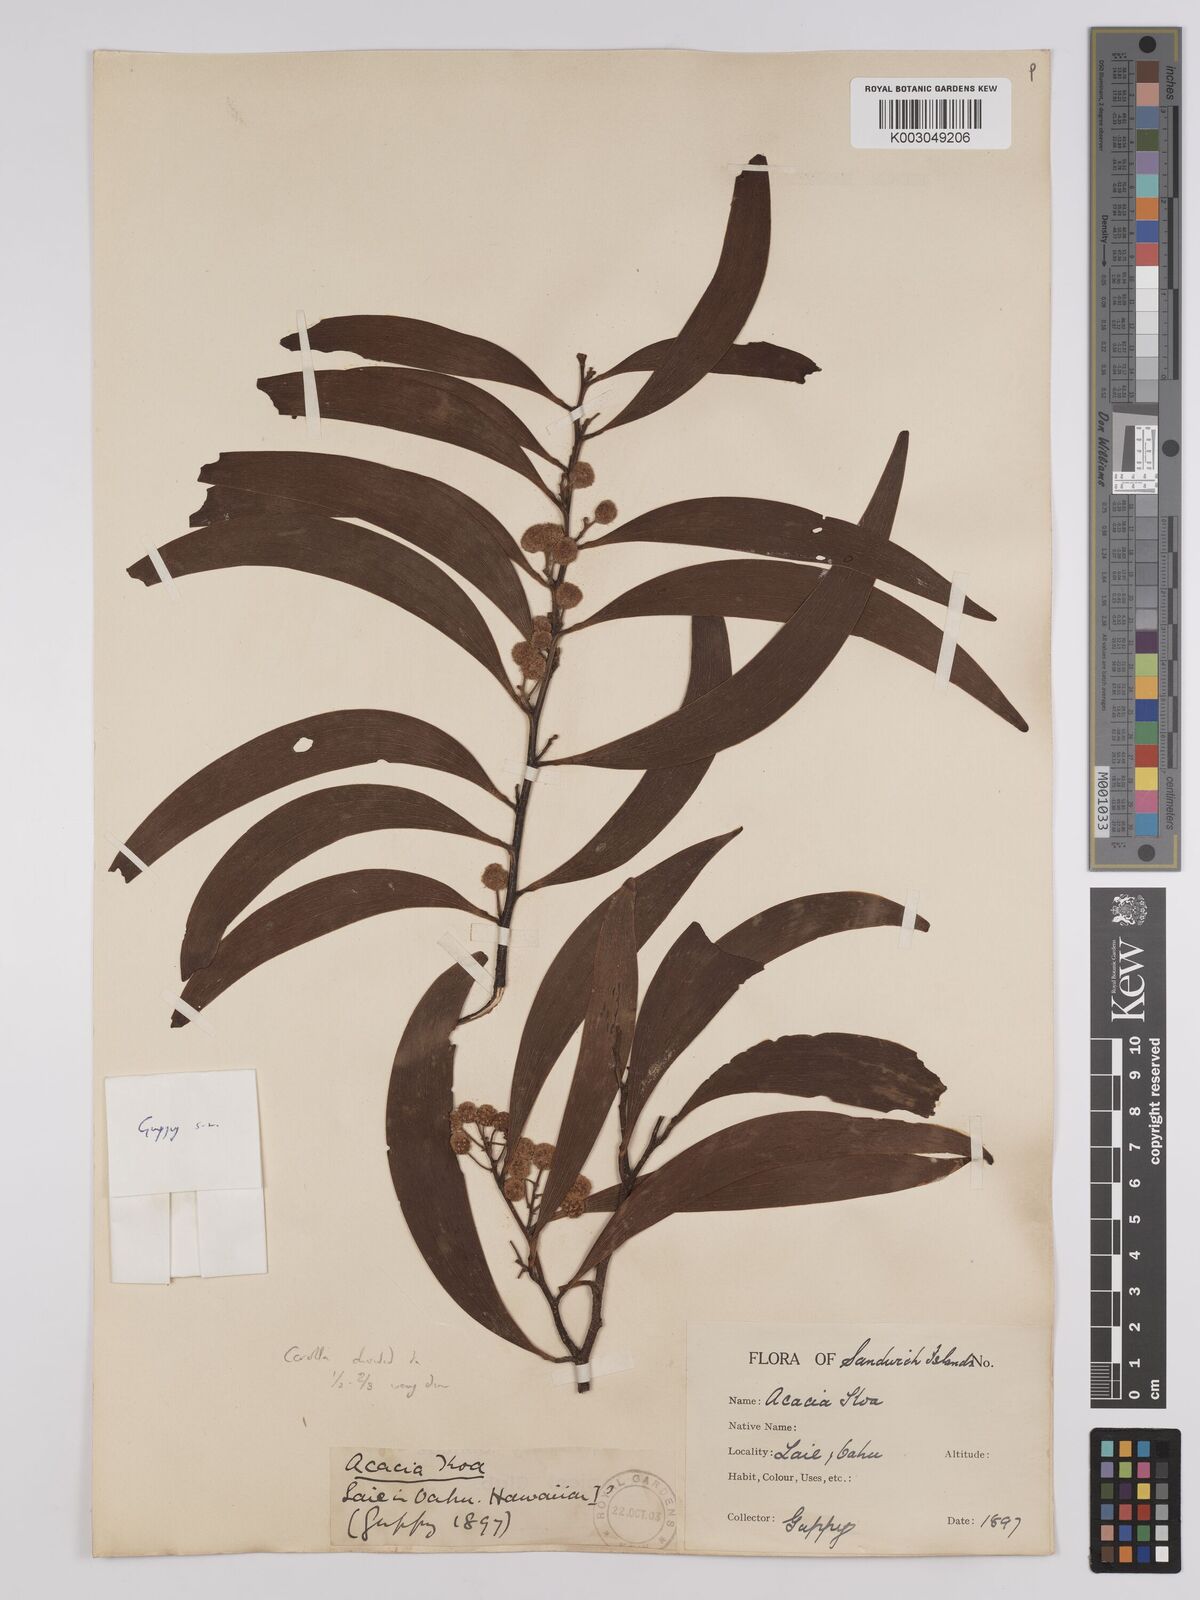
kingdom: Plantae
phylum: Tracheophyta
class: Magnoliopsida
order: Fabales
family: Fabaceae
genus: Acacia
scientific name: Acacia koa
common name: Gray koa
